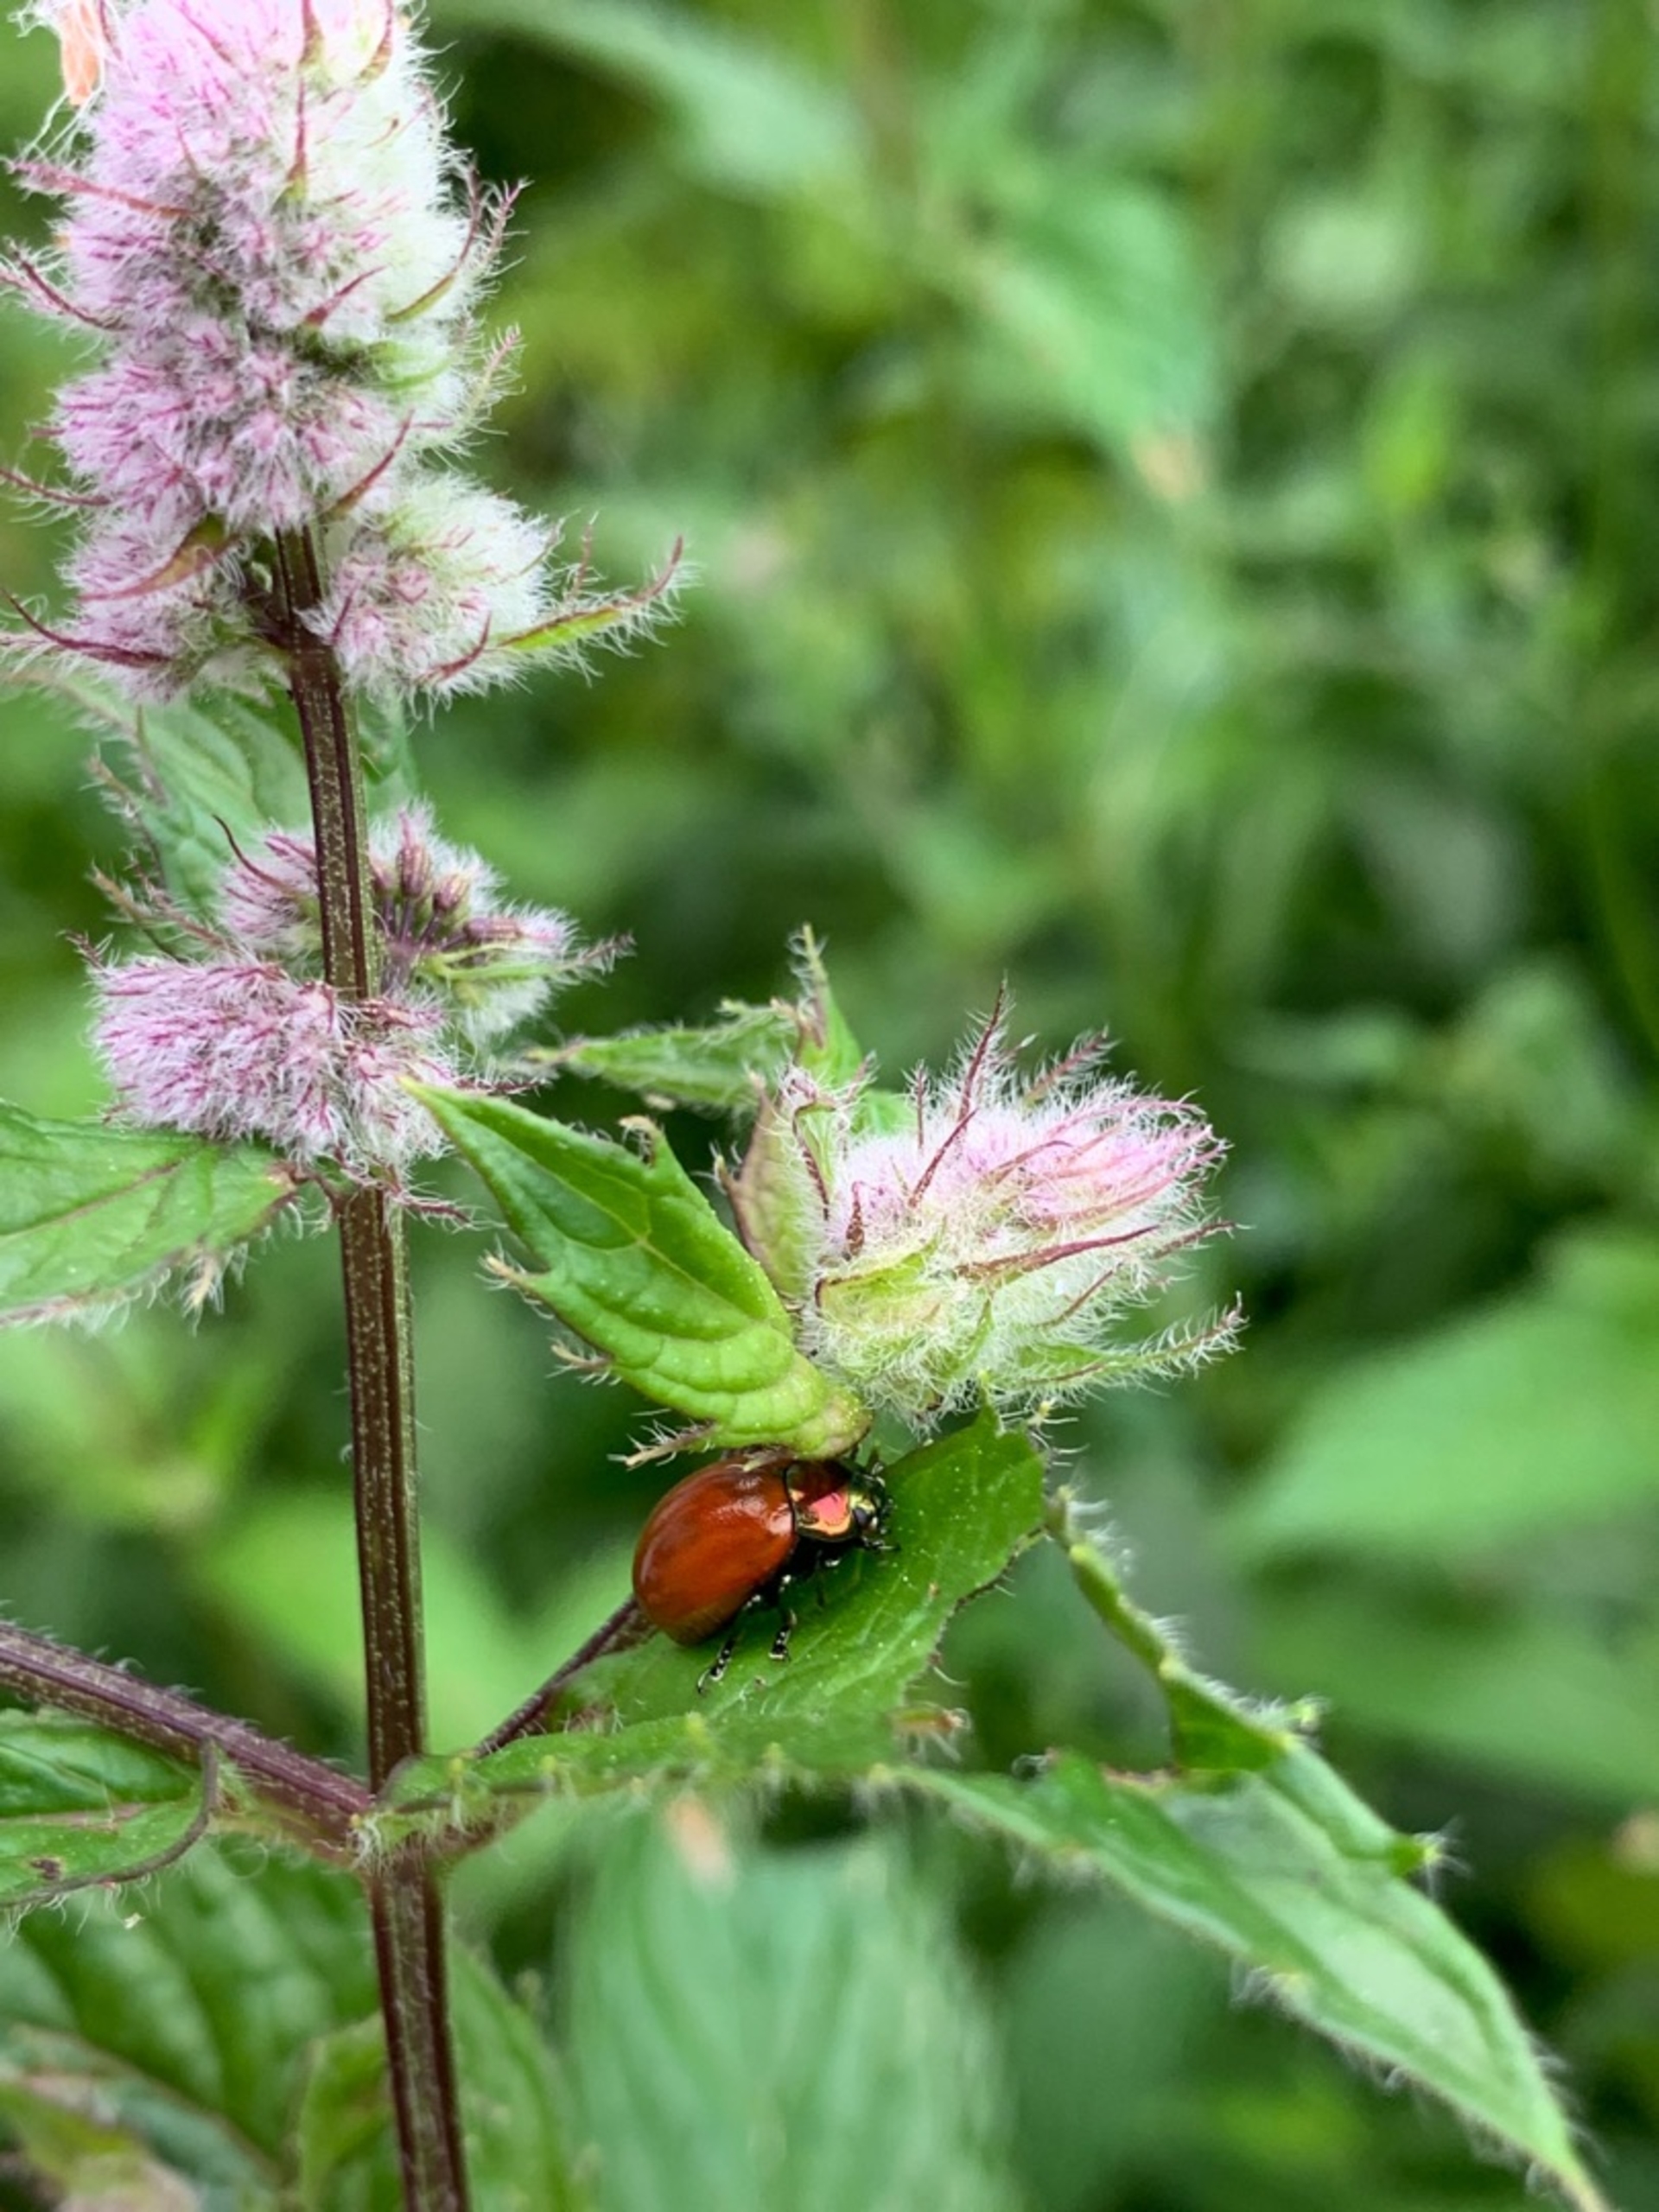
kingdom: Animalia
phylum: Arthropoda
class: Insecta
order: Coleoptera
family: Chrysomelidae
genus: Chrysomela
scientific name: Chrysomela polita
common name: Forskelligfarvet guldbille
